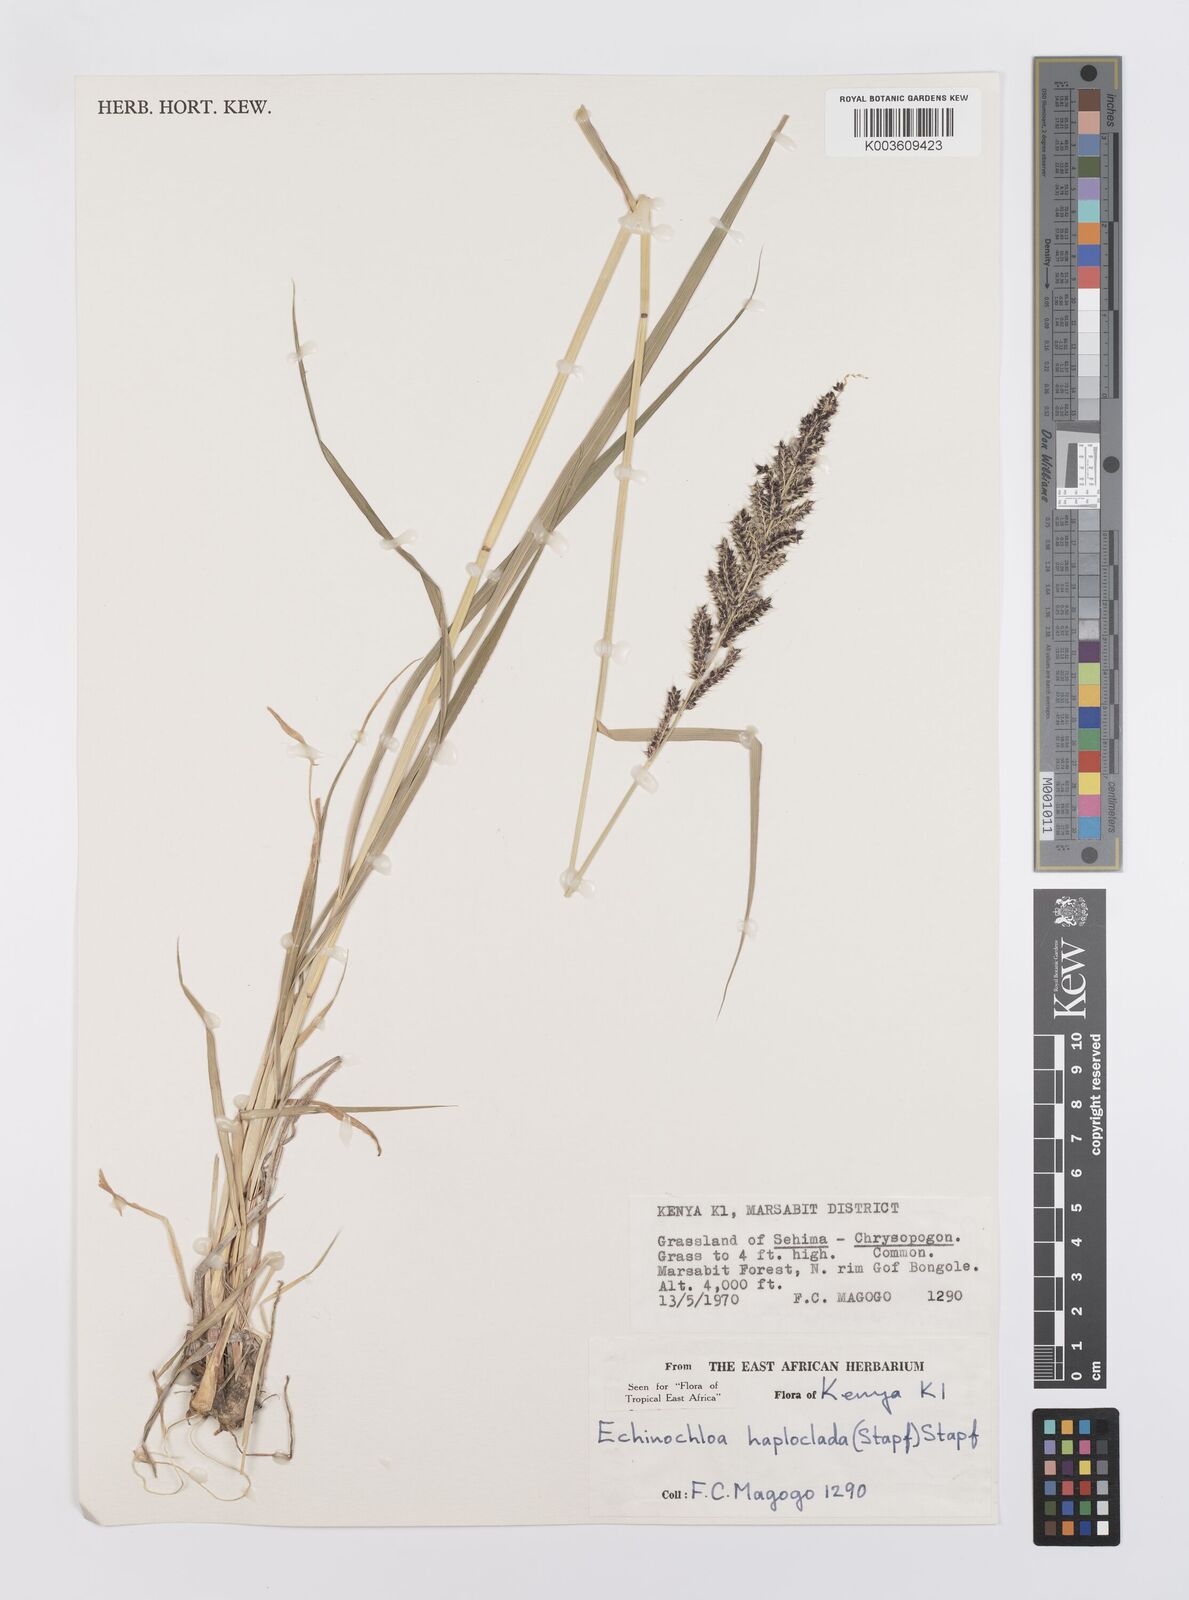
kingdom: Plantae
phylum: Tracheophyta
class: Liliopsida
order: Poales
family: Poaceae
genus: Echinochloa
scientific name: Echinochloa haploclada
